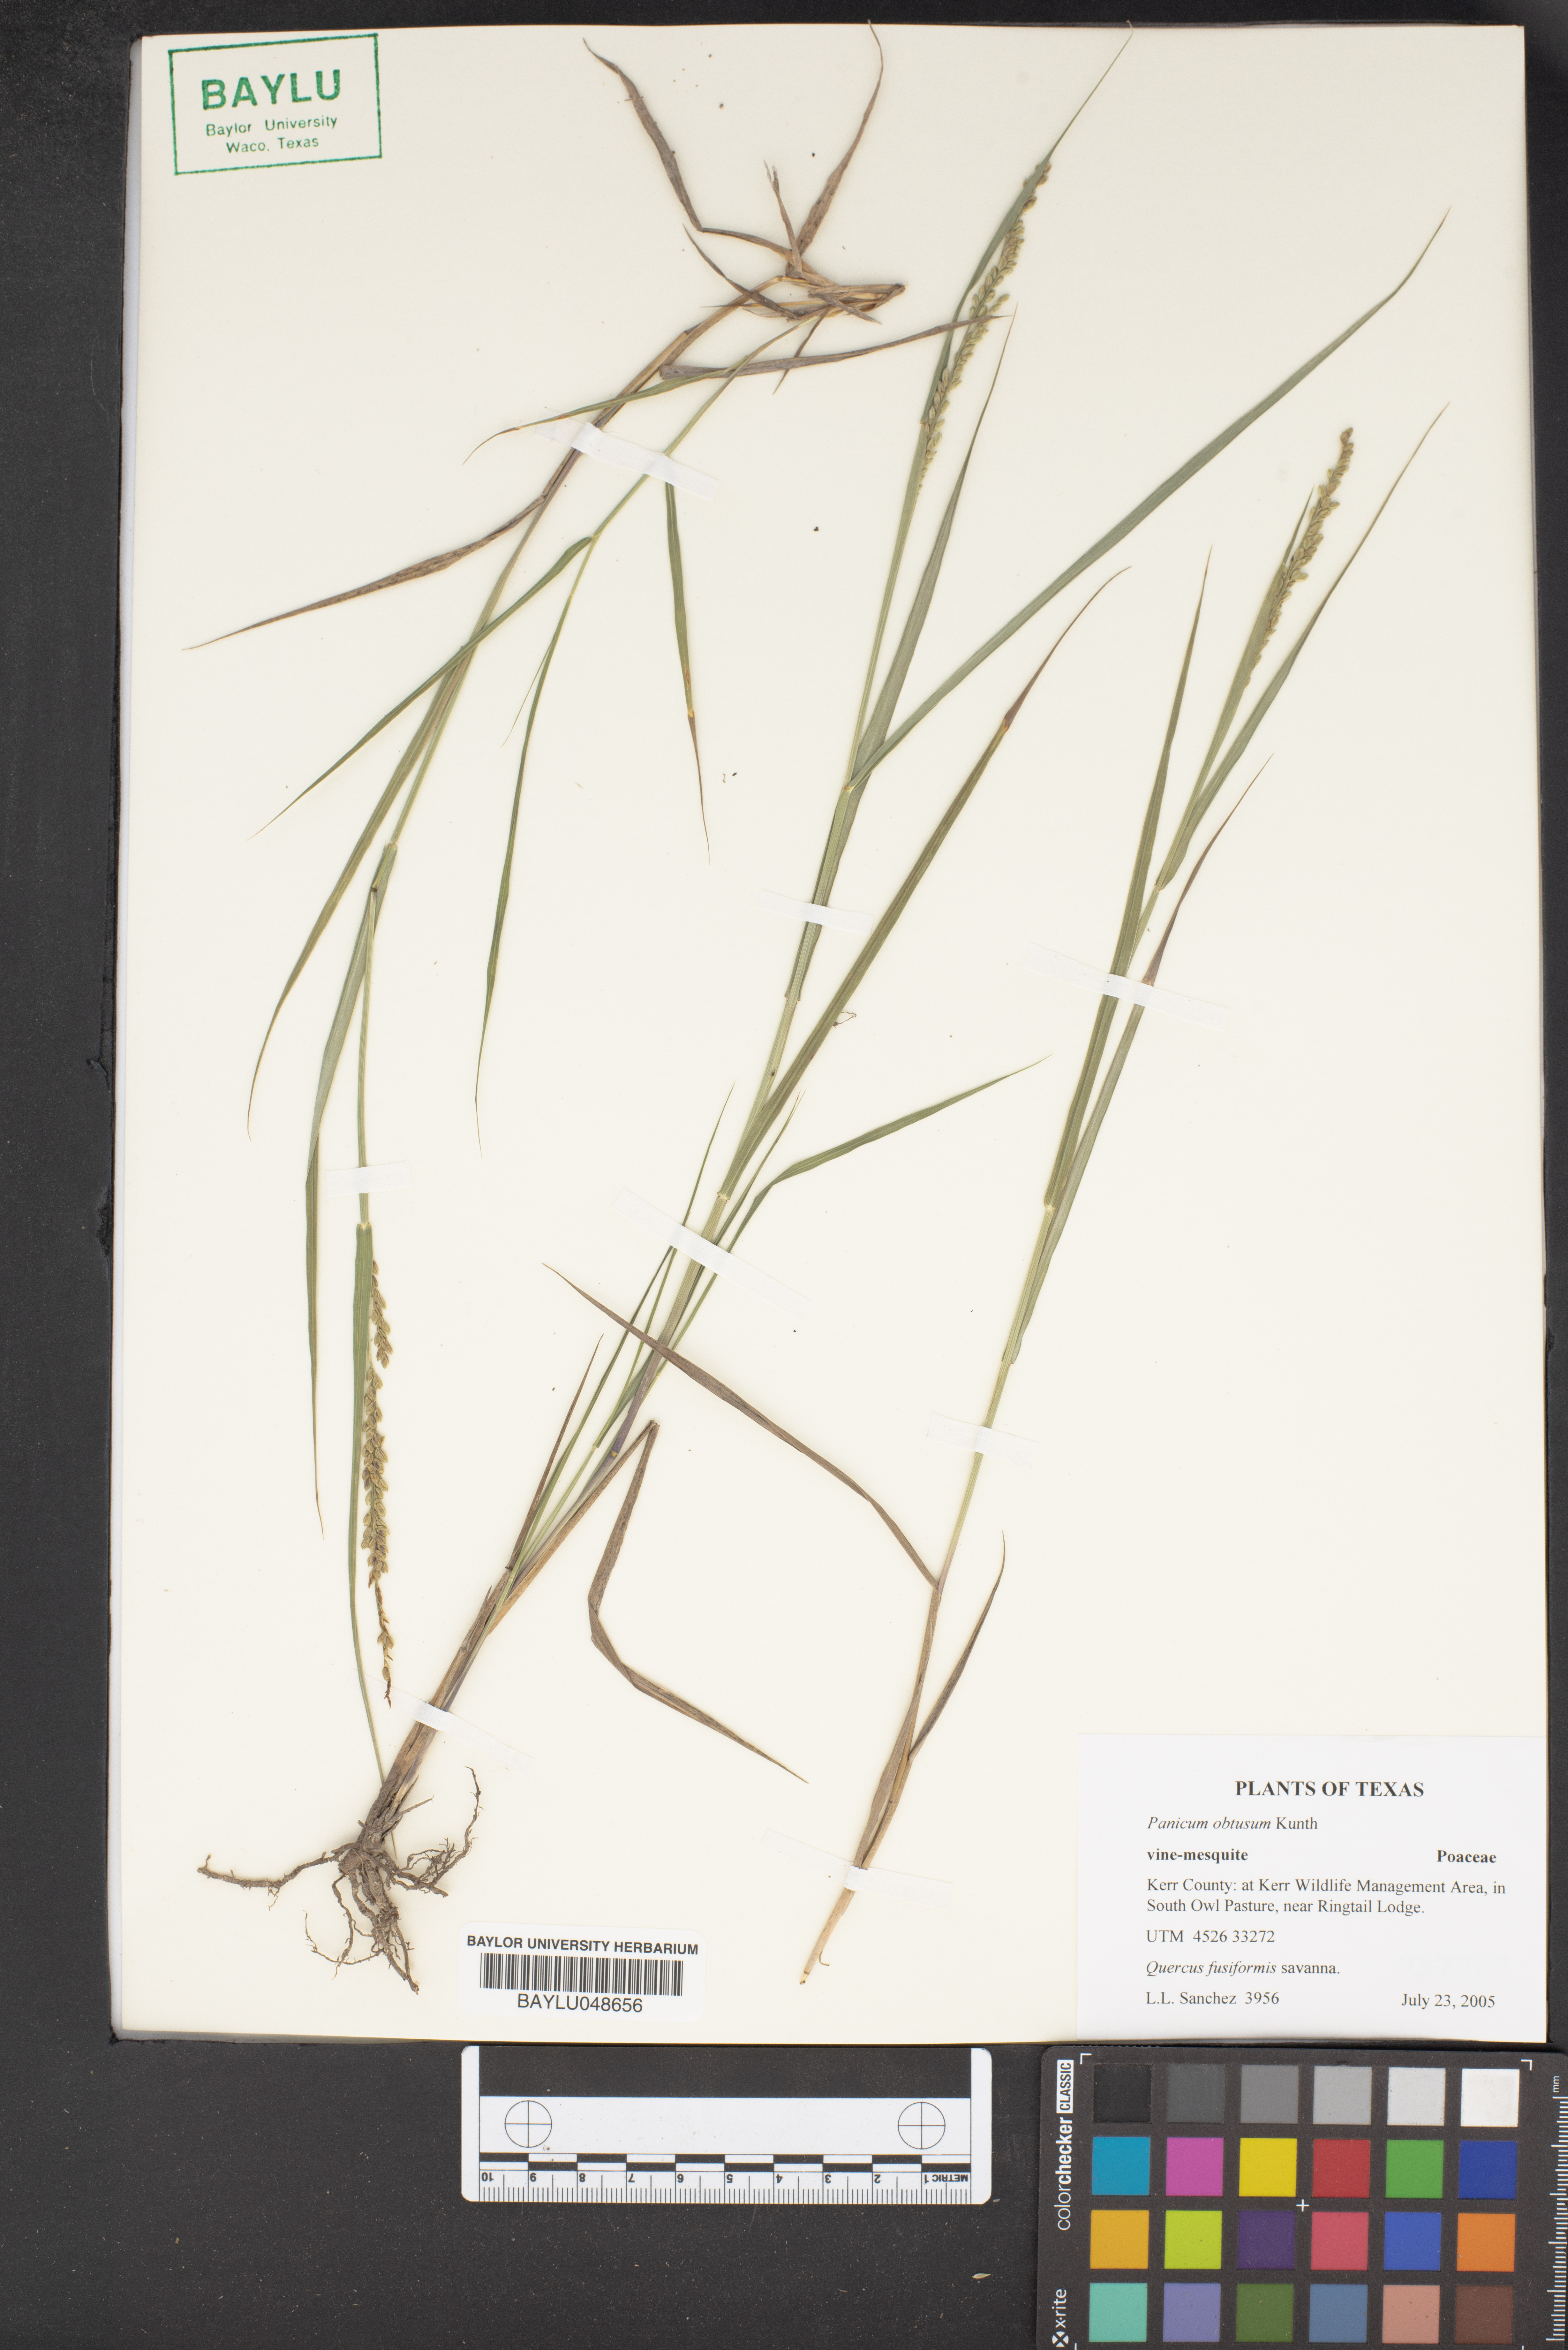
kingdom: Plantae
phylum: Tracheophyta
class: Liliopsida
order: Poales
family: Poaceae
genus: Hopia
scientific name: Hopia obtusa
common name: Vine-mesquite
